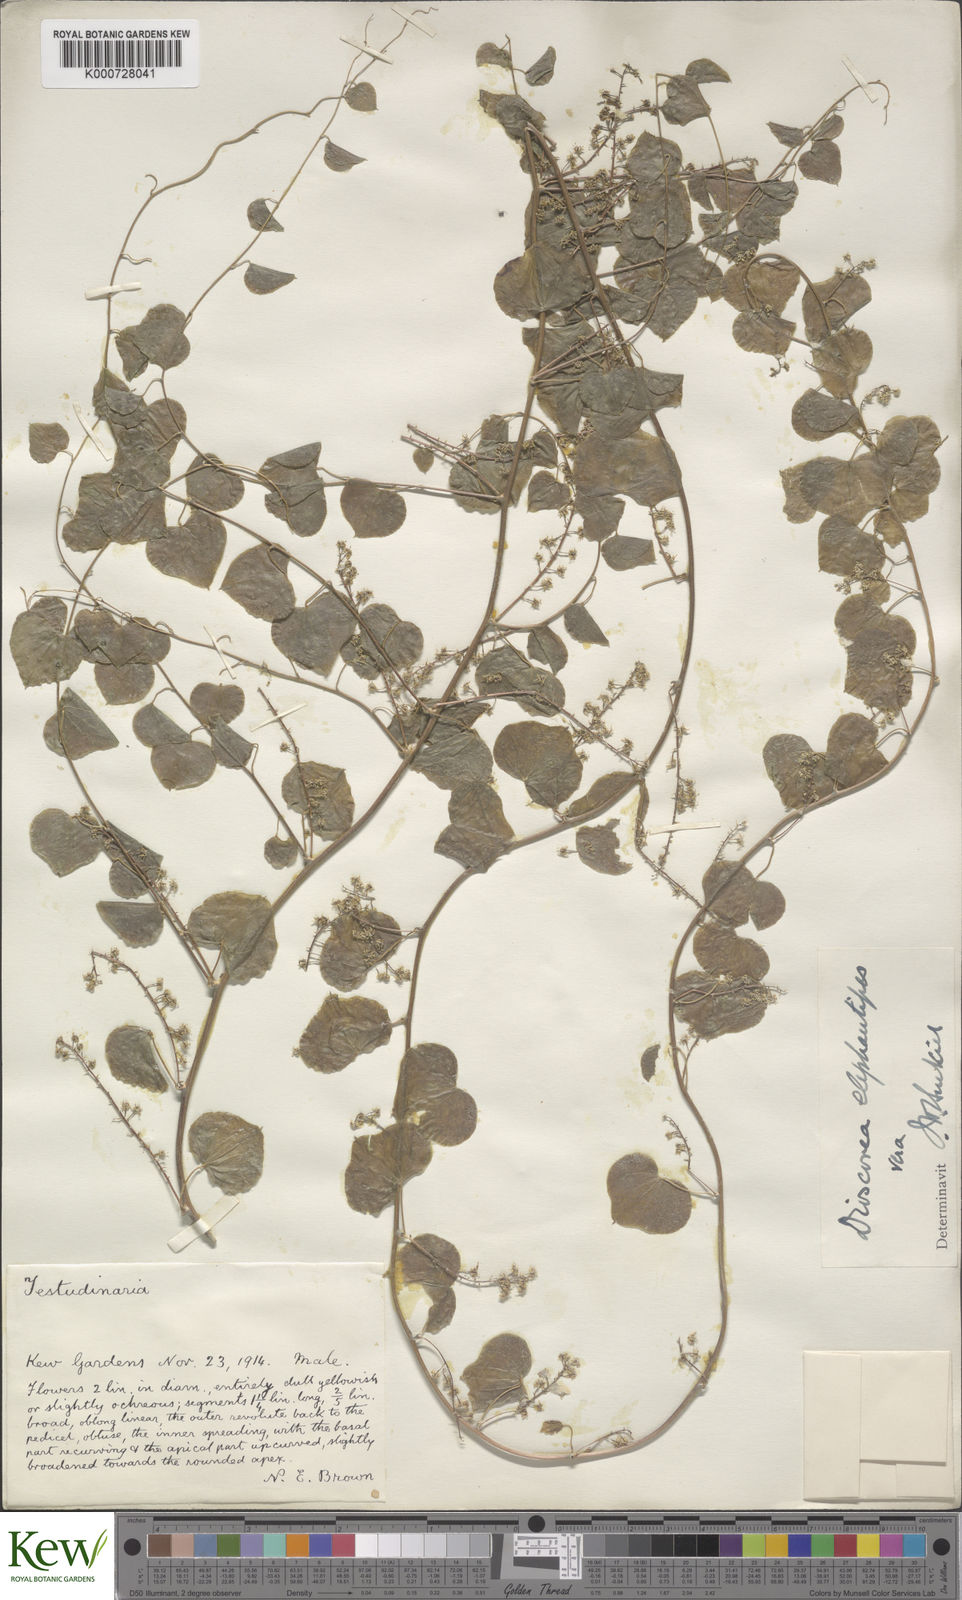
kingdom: Plantae
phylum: Tracheophyta
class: Liliopsida
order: Dioscoreales
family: Dioscoreaceae
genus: Dioscorea
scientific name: Dioscorea
